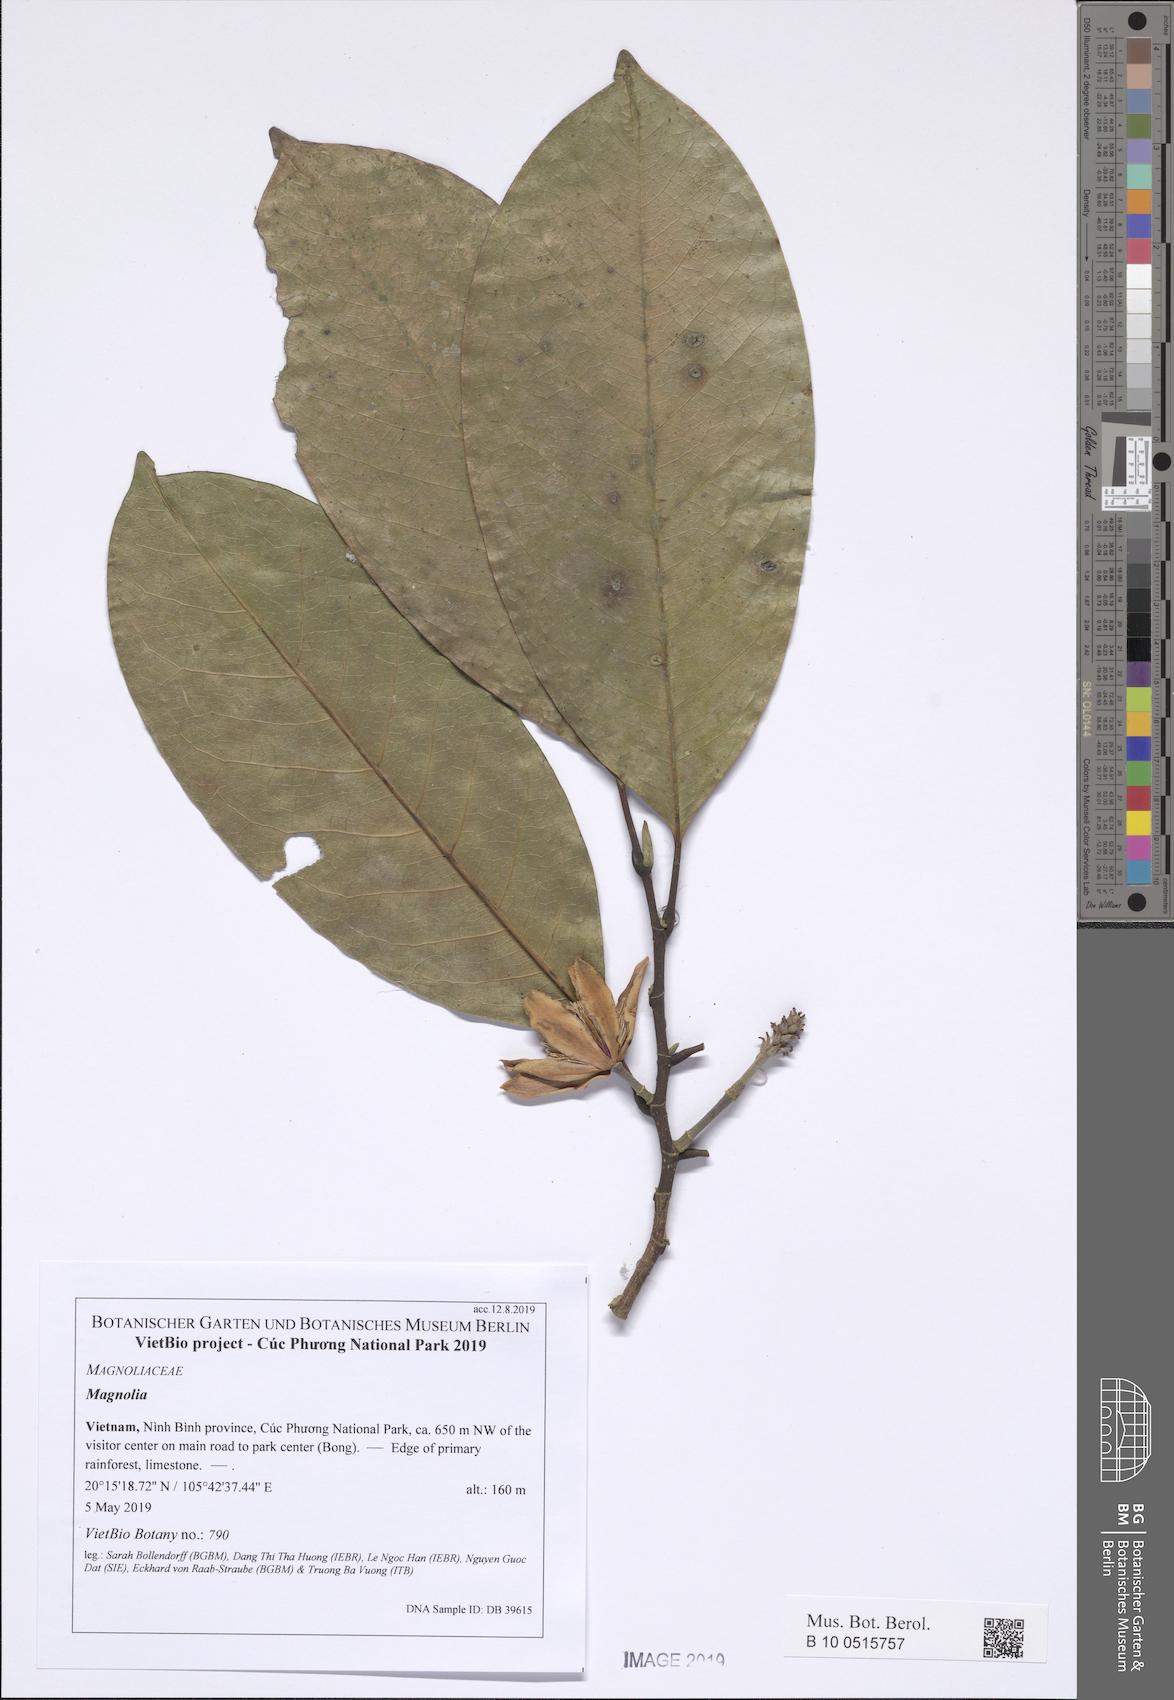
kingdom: Plantae
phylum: Tracheophyta
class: Magnoliopsida
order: Magnoliales
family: Magnoliaceae
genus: Magnolia
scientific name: Magnolia chapensis
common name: Prosperous music smiling tree
